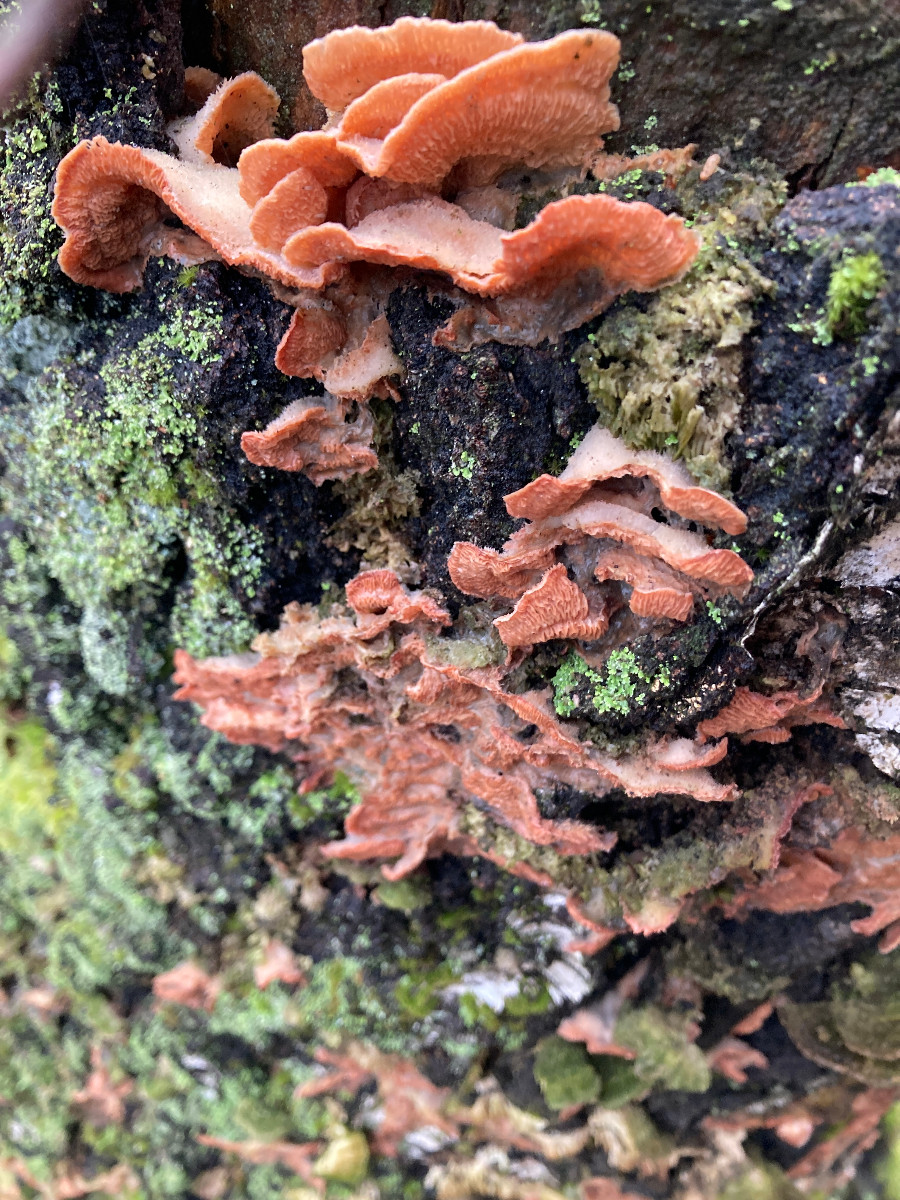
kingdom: Fungi
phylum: Basidiomycota
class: Agaricomycetes
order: Polyporales
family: Meruliaceae
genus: Phlebia
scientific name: Phlebia tremellosa
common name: bævrende åresvamp
